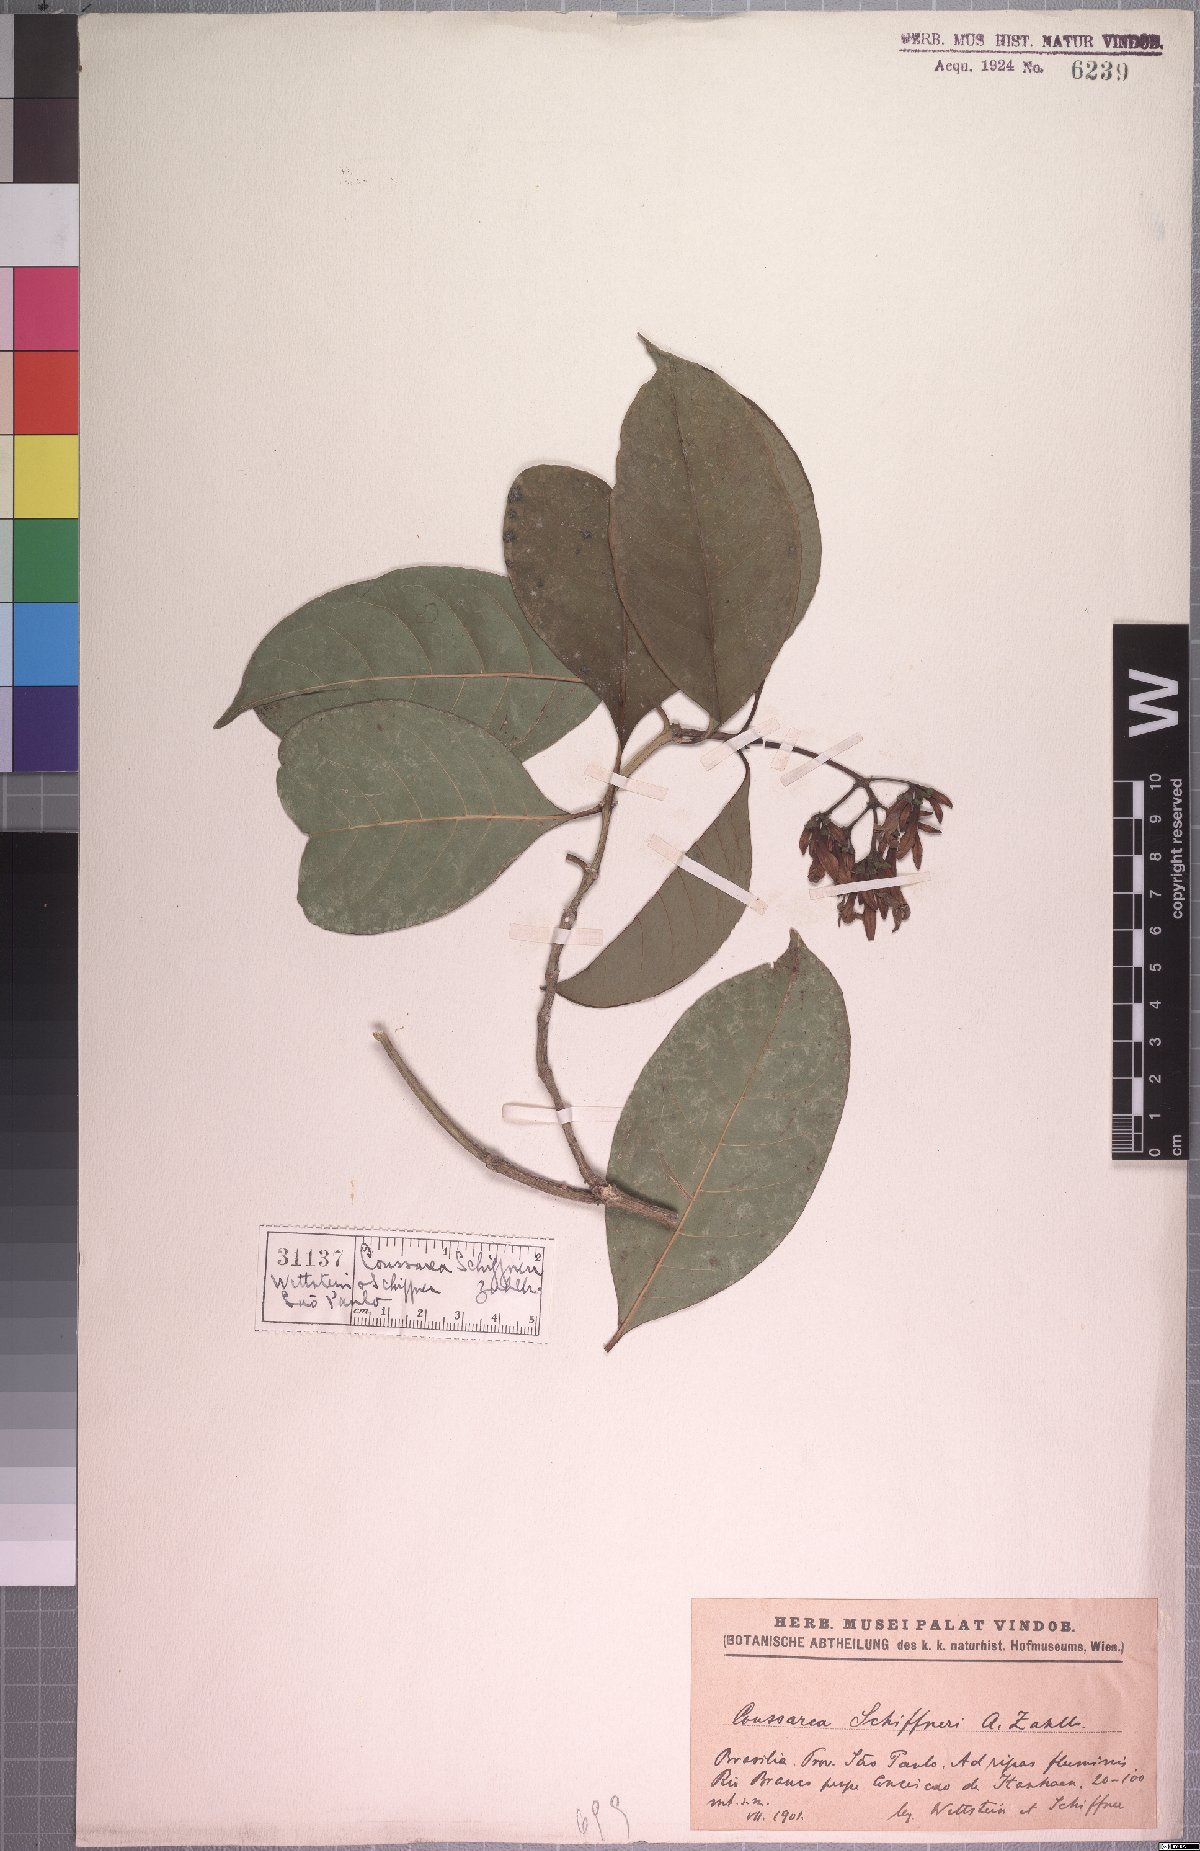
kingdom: Plantae
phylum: Tracheophyta
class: Magnoliopsida
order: Gentianales
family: Rubiaceae
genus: Coussarea
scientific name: Coussarea schiffneri
